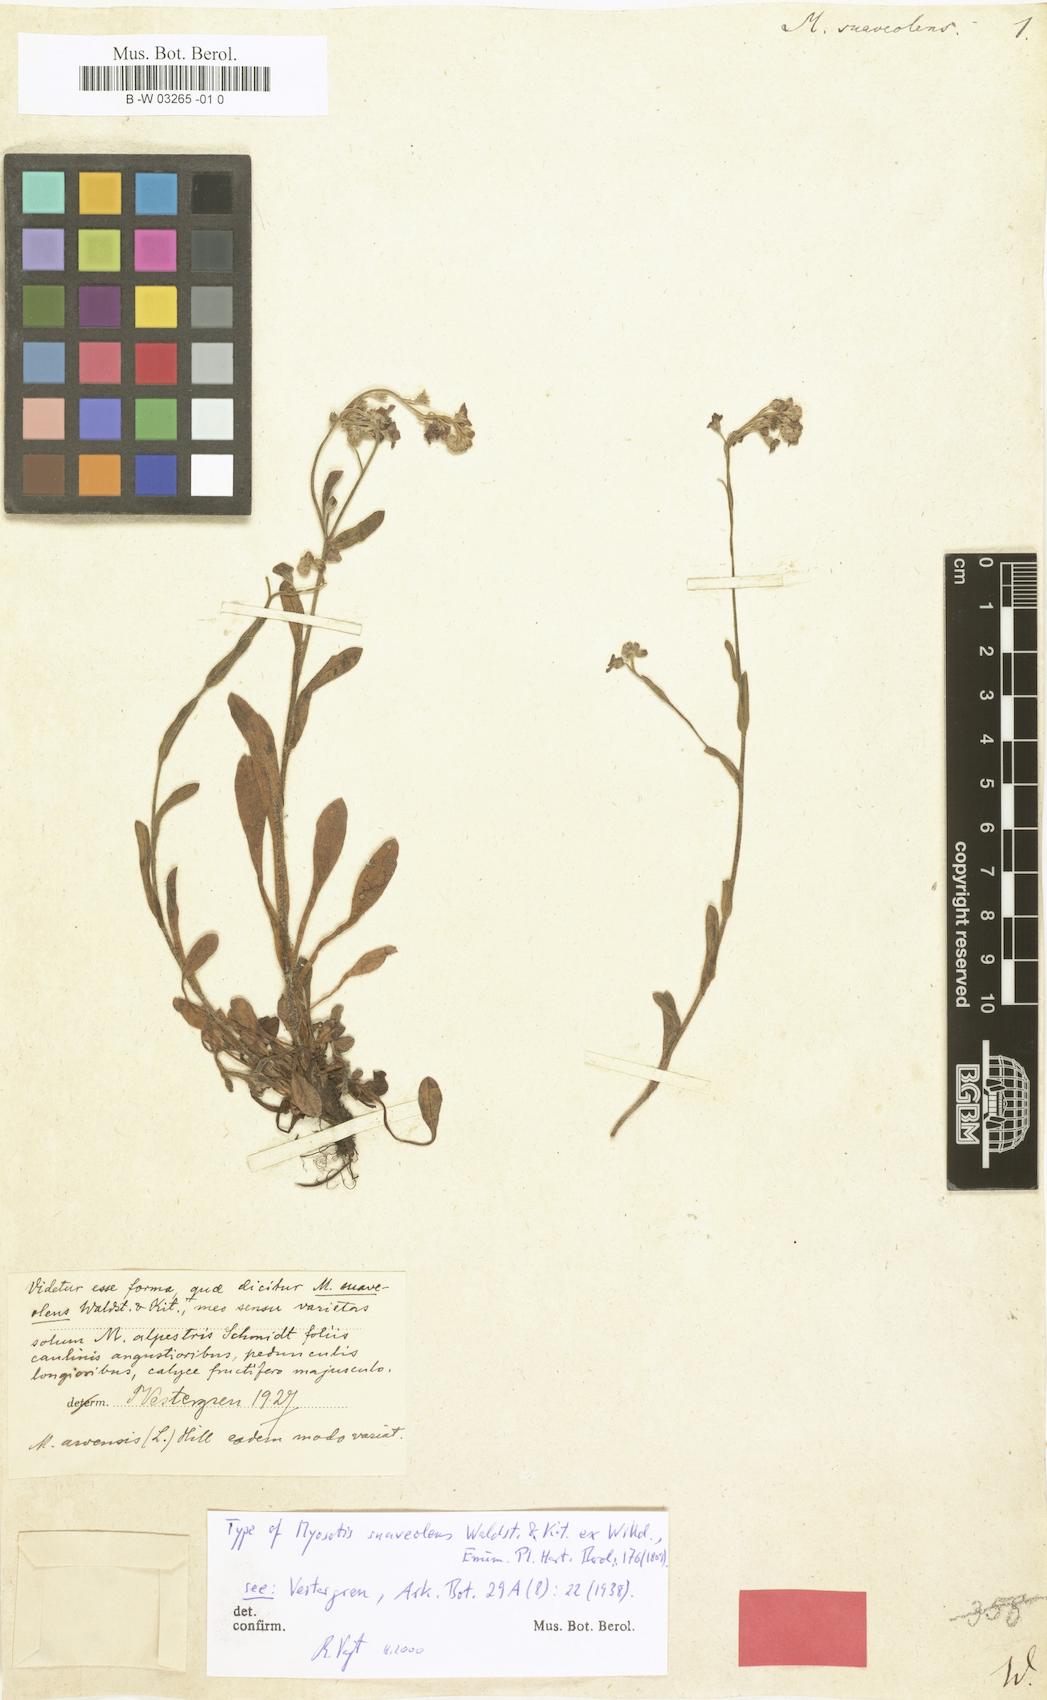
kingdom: Plantae
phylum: Tracheophyta
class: Magnoliopsida
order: Boraginales
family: Boraginaceae
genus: Myosotis
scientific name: Myosotis alpestris
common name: Alpine forget-me-not
